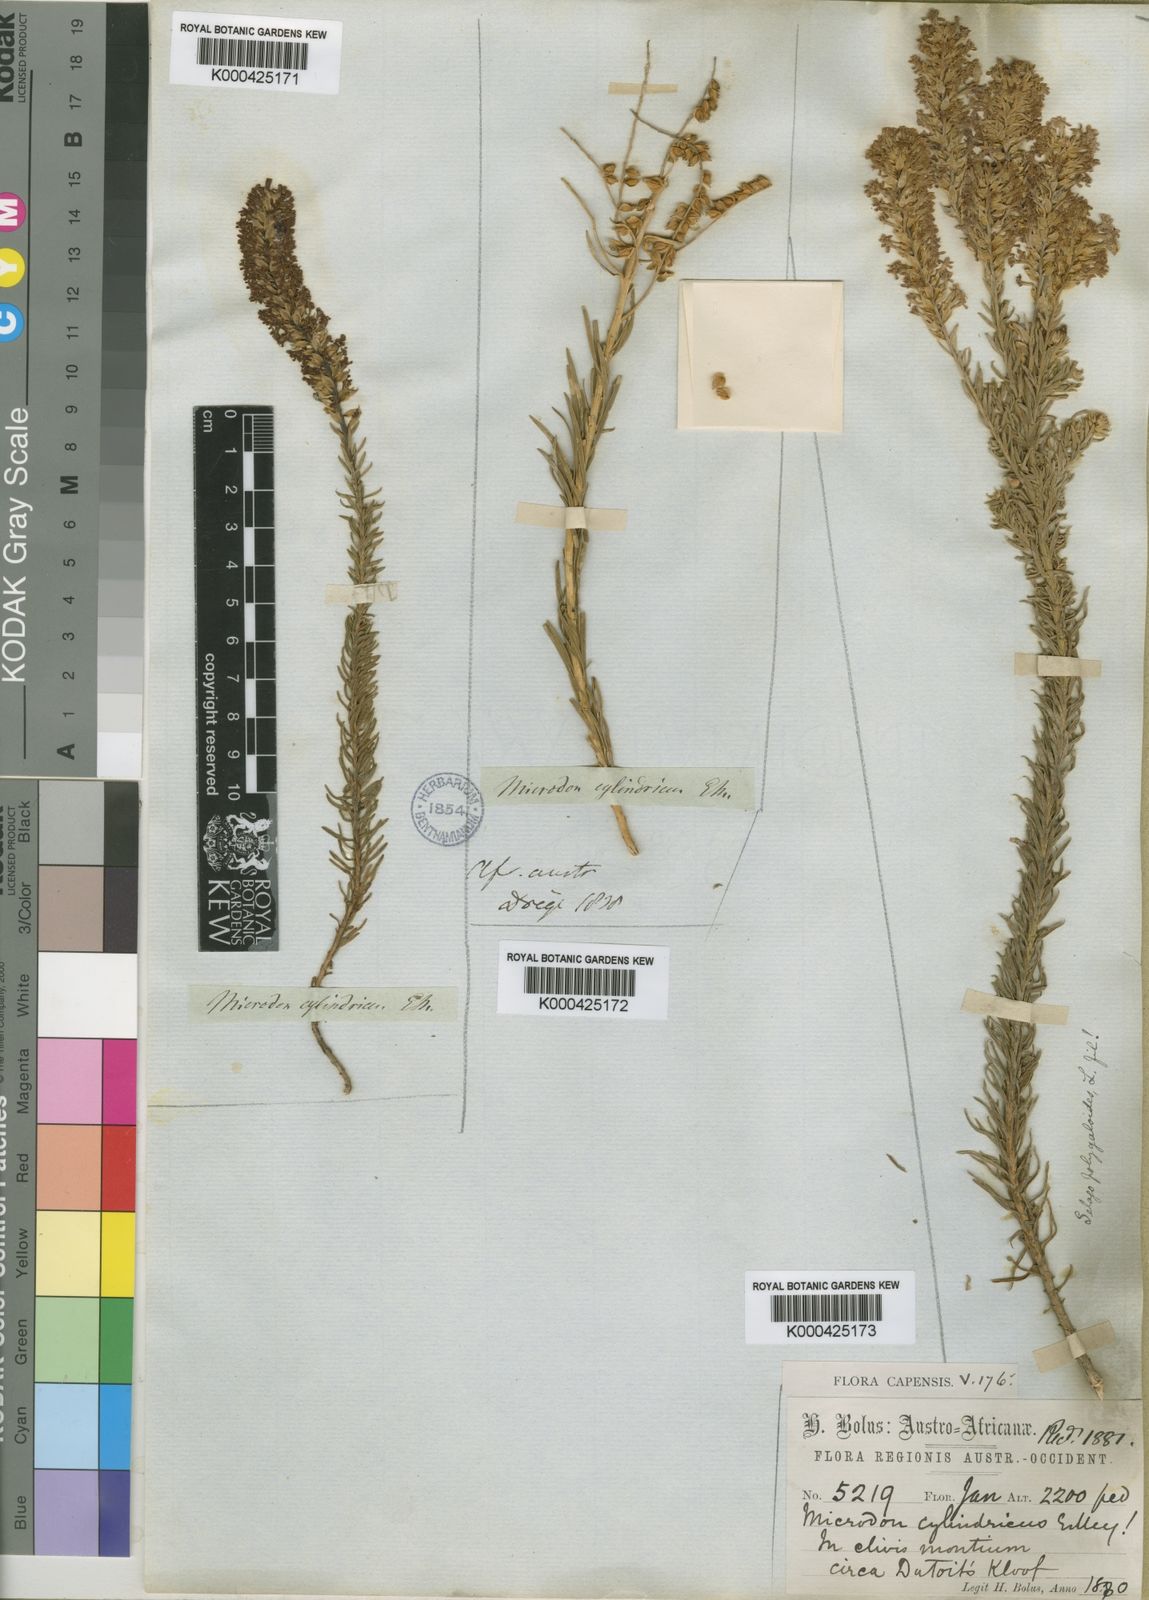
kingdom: Plantae
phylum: Tracheophyta
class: Magnoliopsida
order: Lamiales
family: Scrophulariaceae
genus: Microdon
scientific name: Microdon polygaloides
